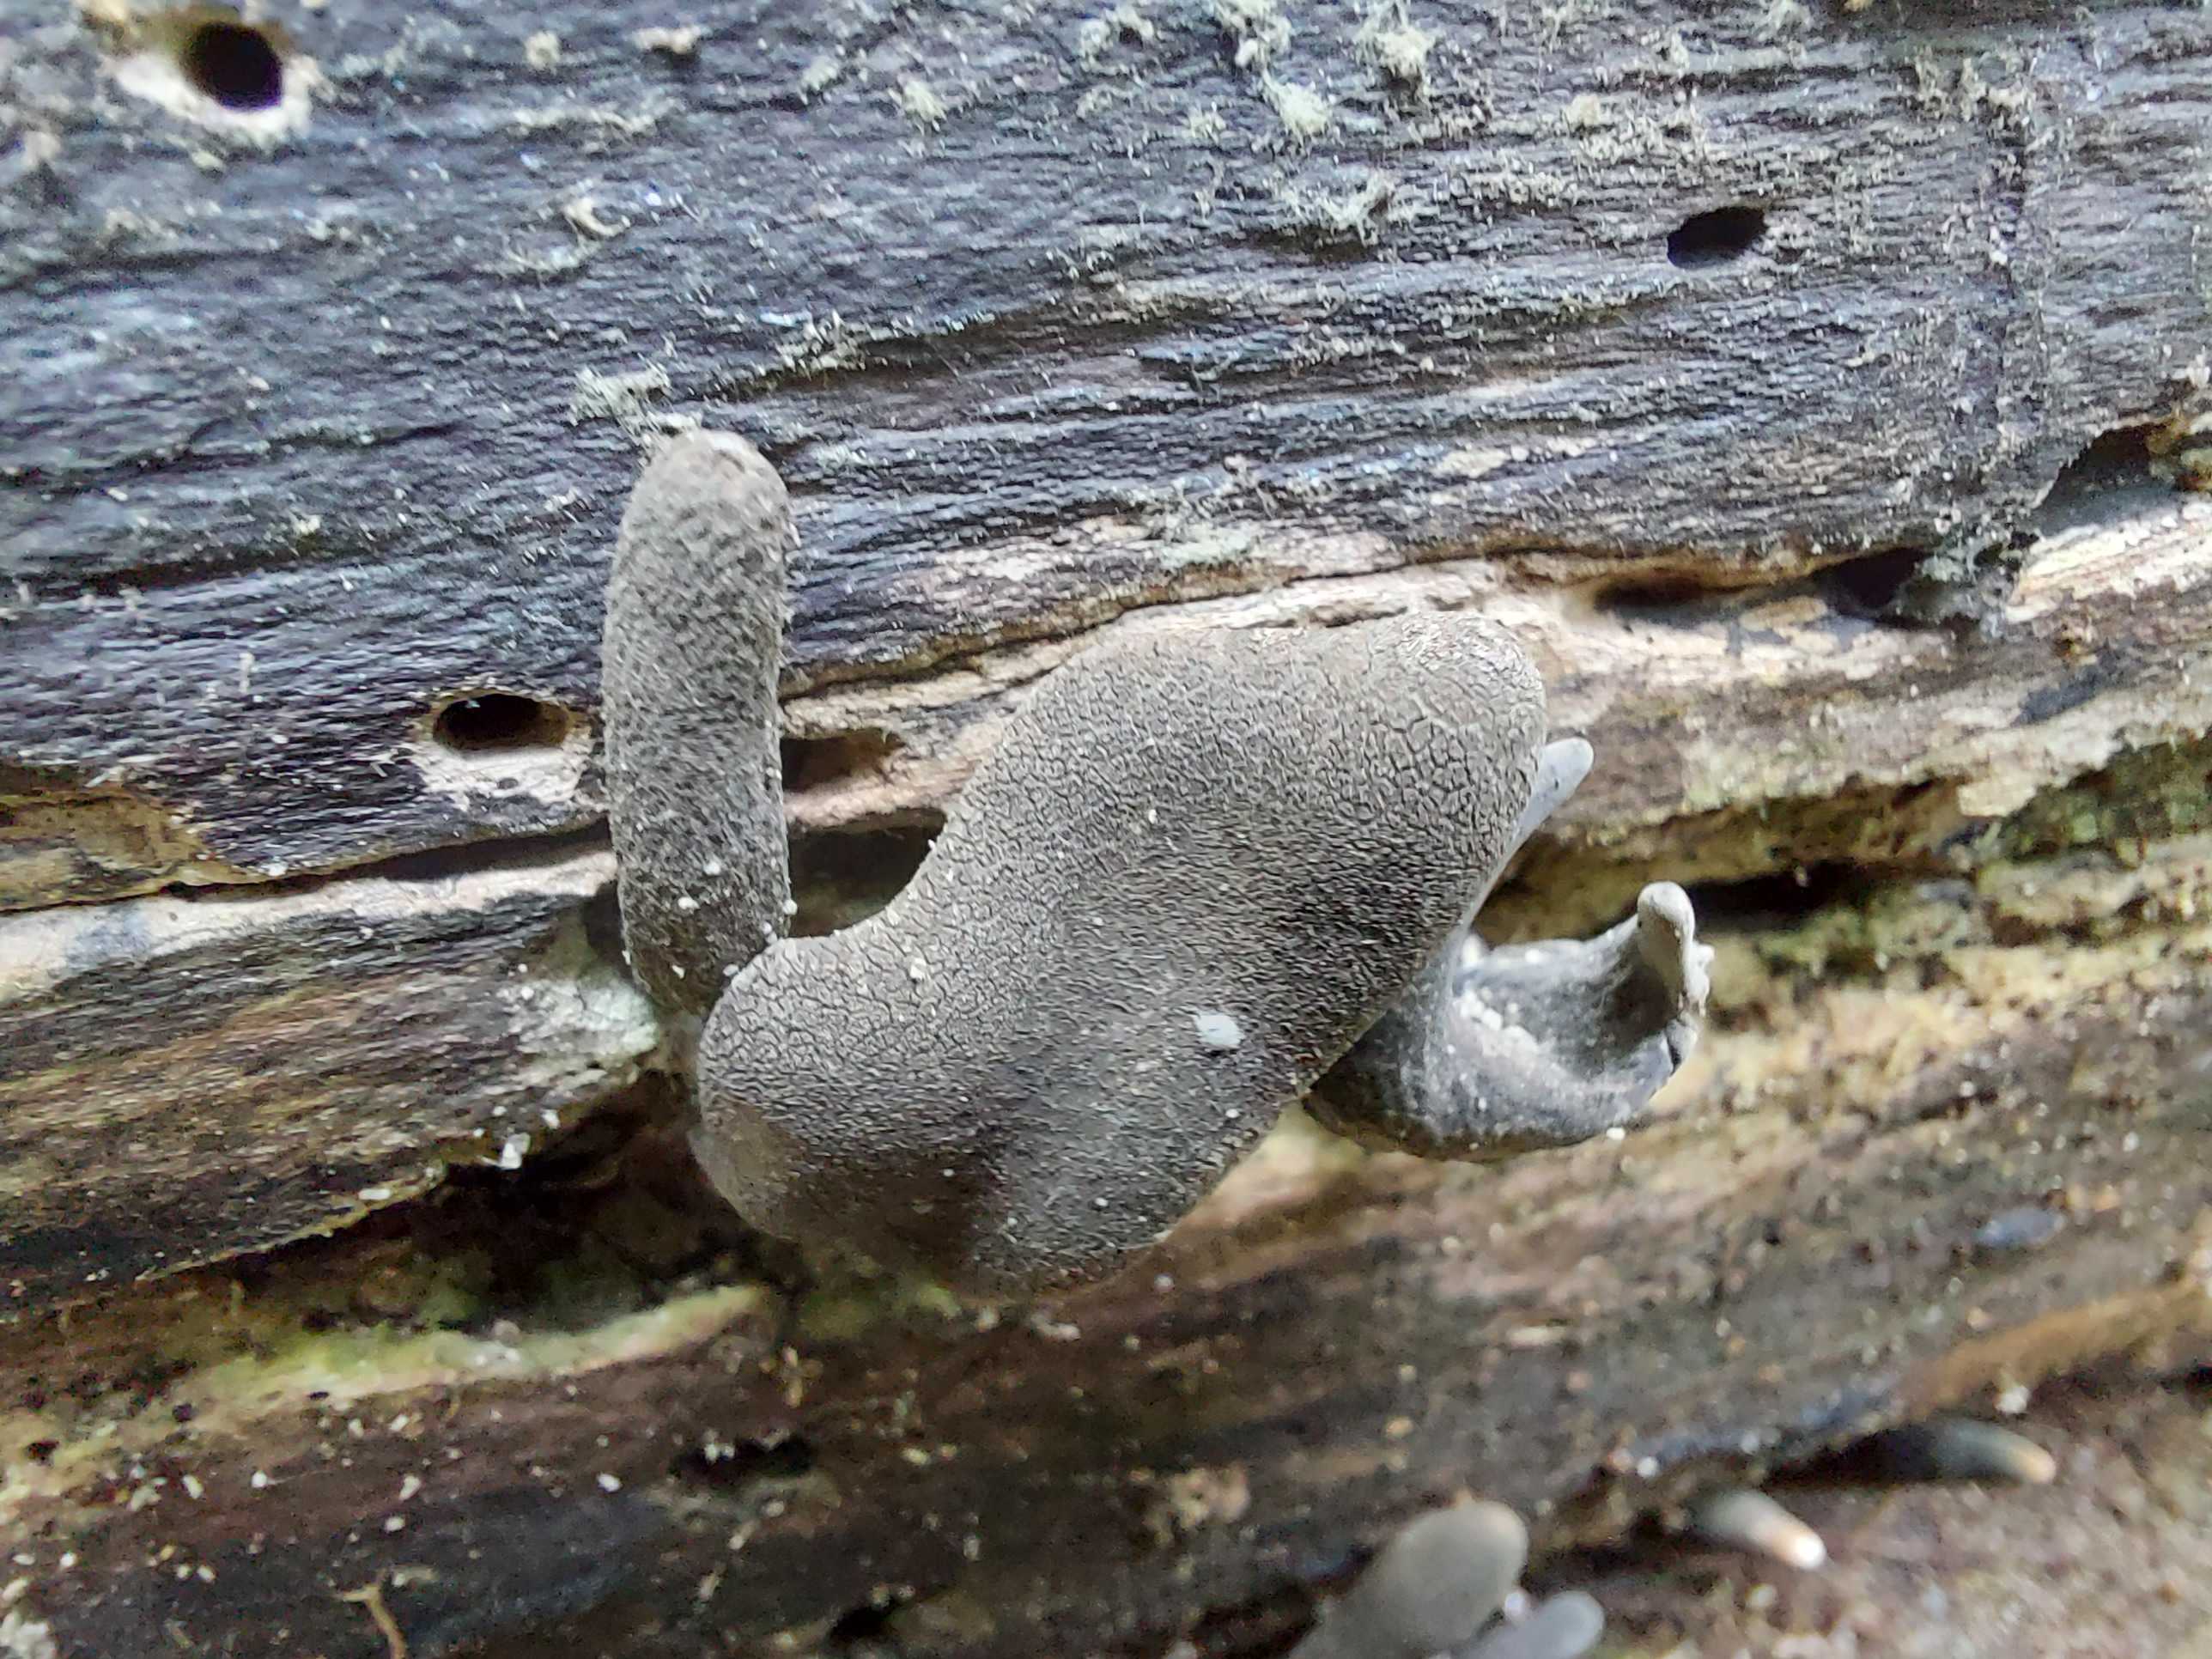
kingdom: Fungi
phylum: Ascomycota
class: Sordariomycetes
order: Xylariales
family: Xylariaceae
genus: Xylaria
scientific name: Xylaria longipes
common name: slank stødsvamp
